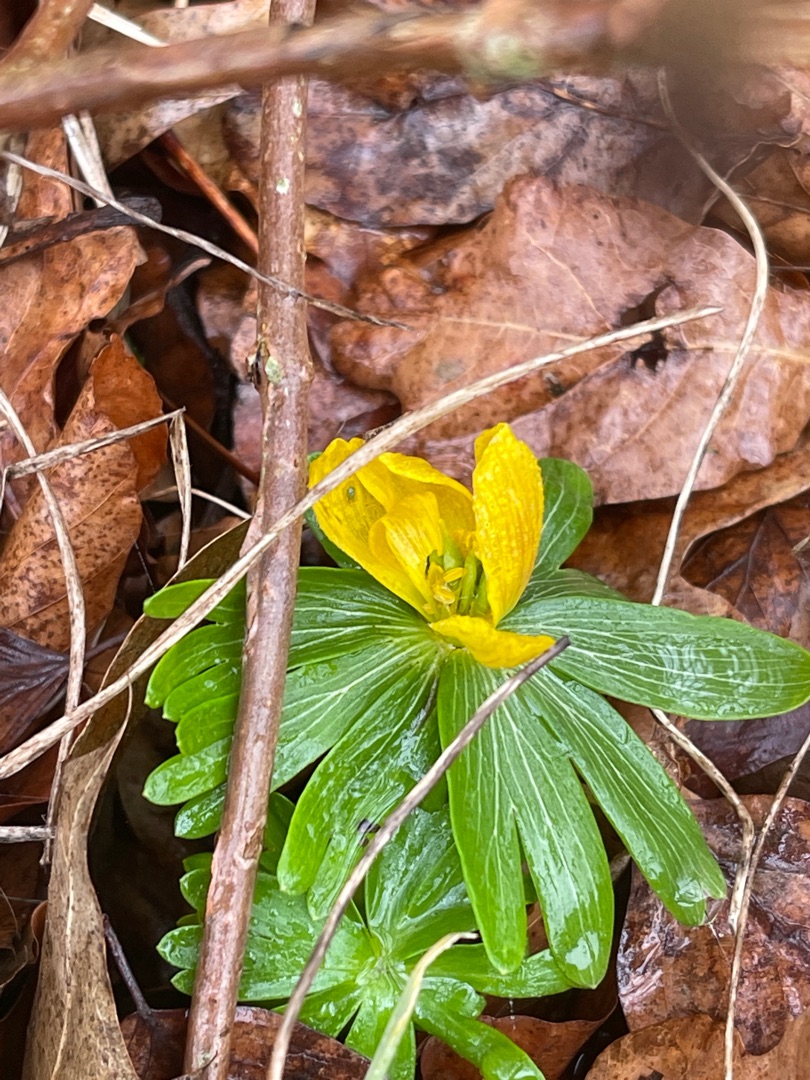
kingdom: Plantae
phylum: Tracheophyta
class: Magnoliopsida
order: Ranunculales
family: Ranunculaceae
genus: Eranthis
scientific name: Eranthis hyemalis
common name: Erantis
